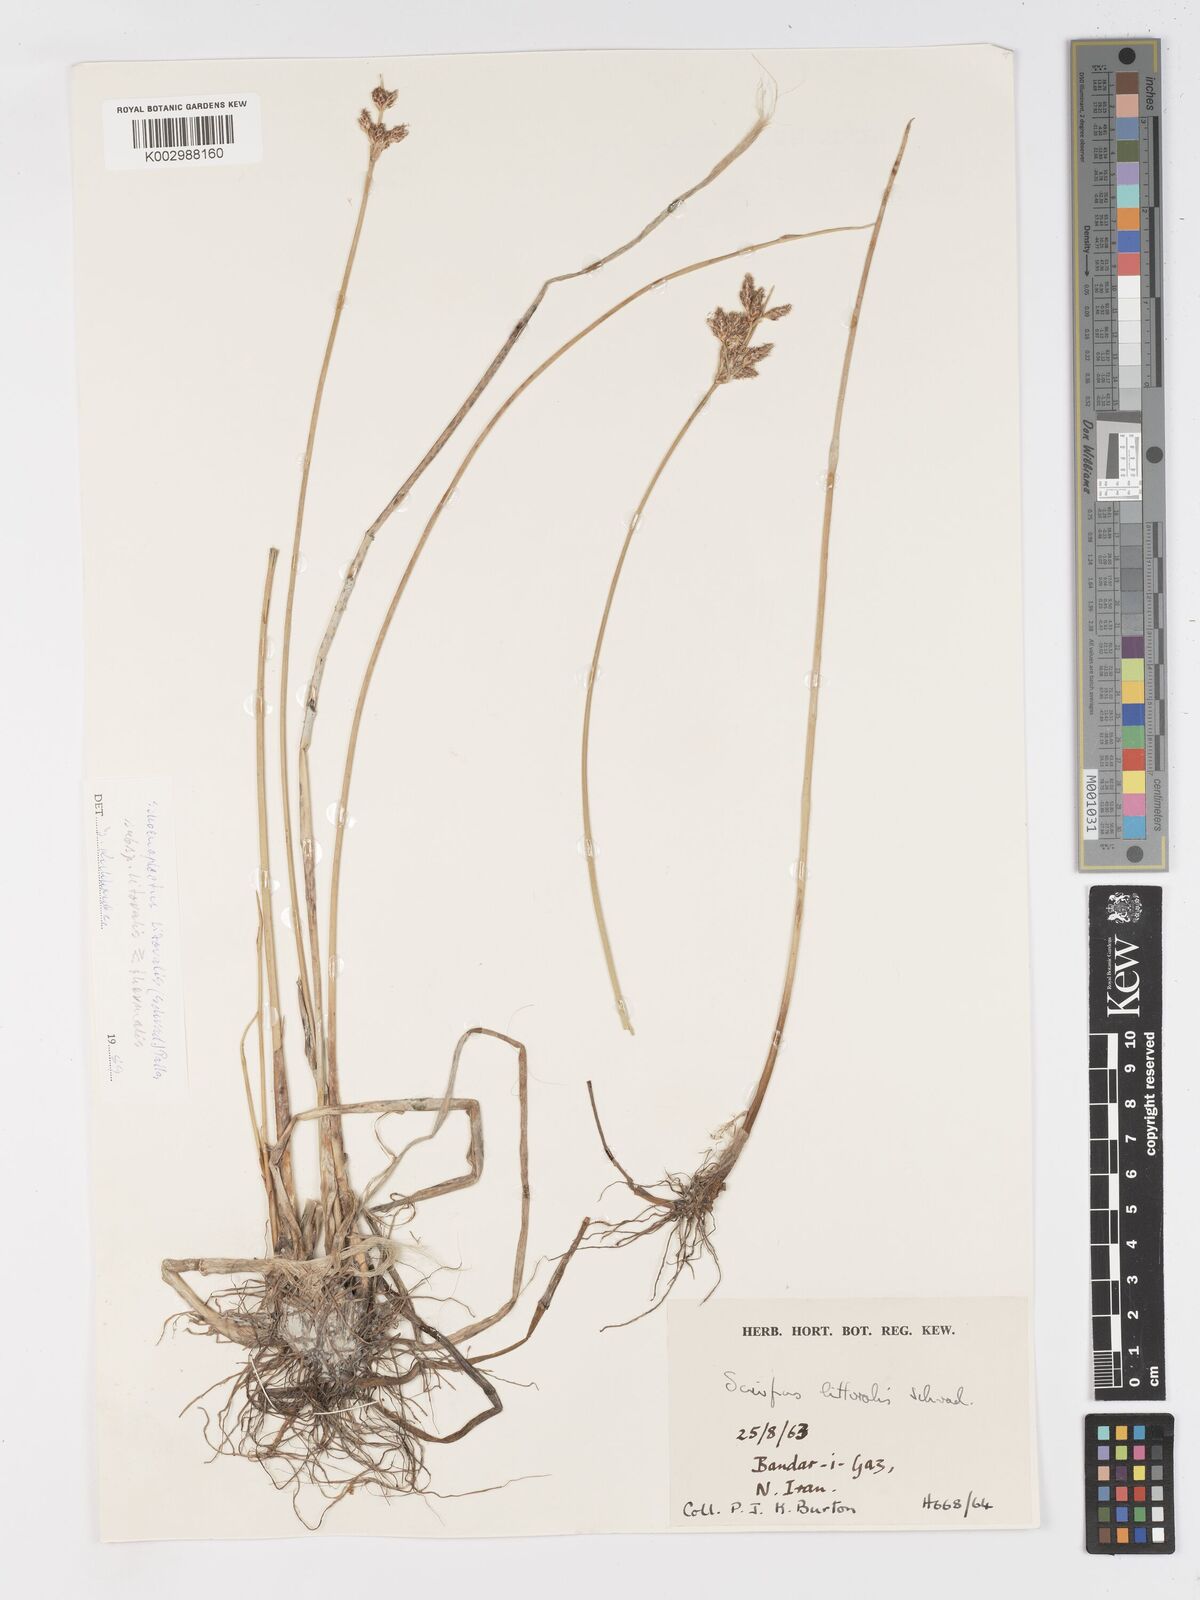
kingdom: Plantae
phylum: Tracheophyta
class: Liliopsida
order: Poales
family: Cyperaceae
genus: Schoenoplectus
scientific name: Schoenoplectus litoralis
